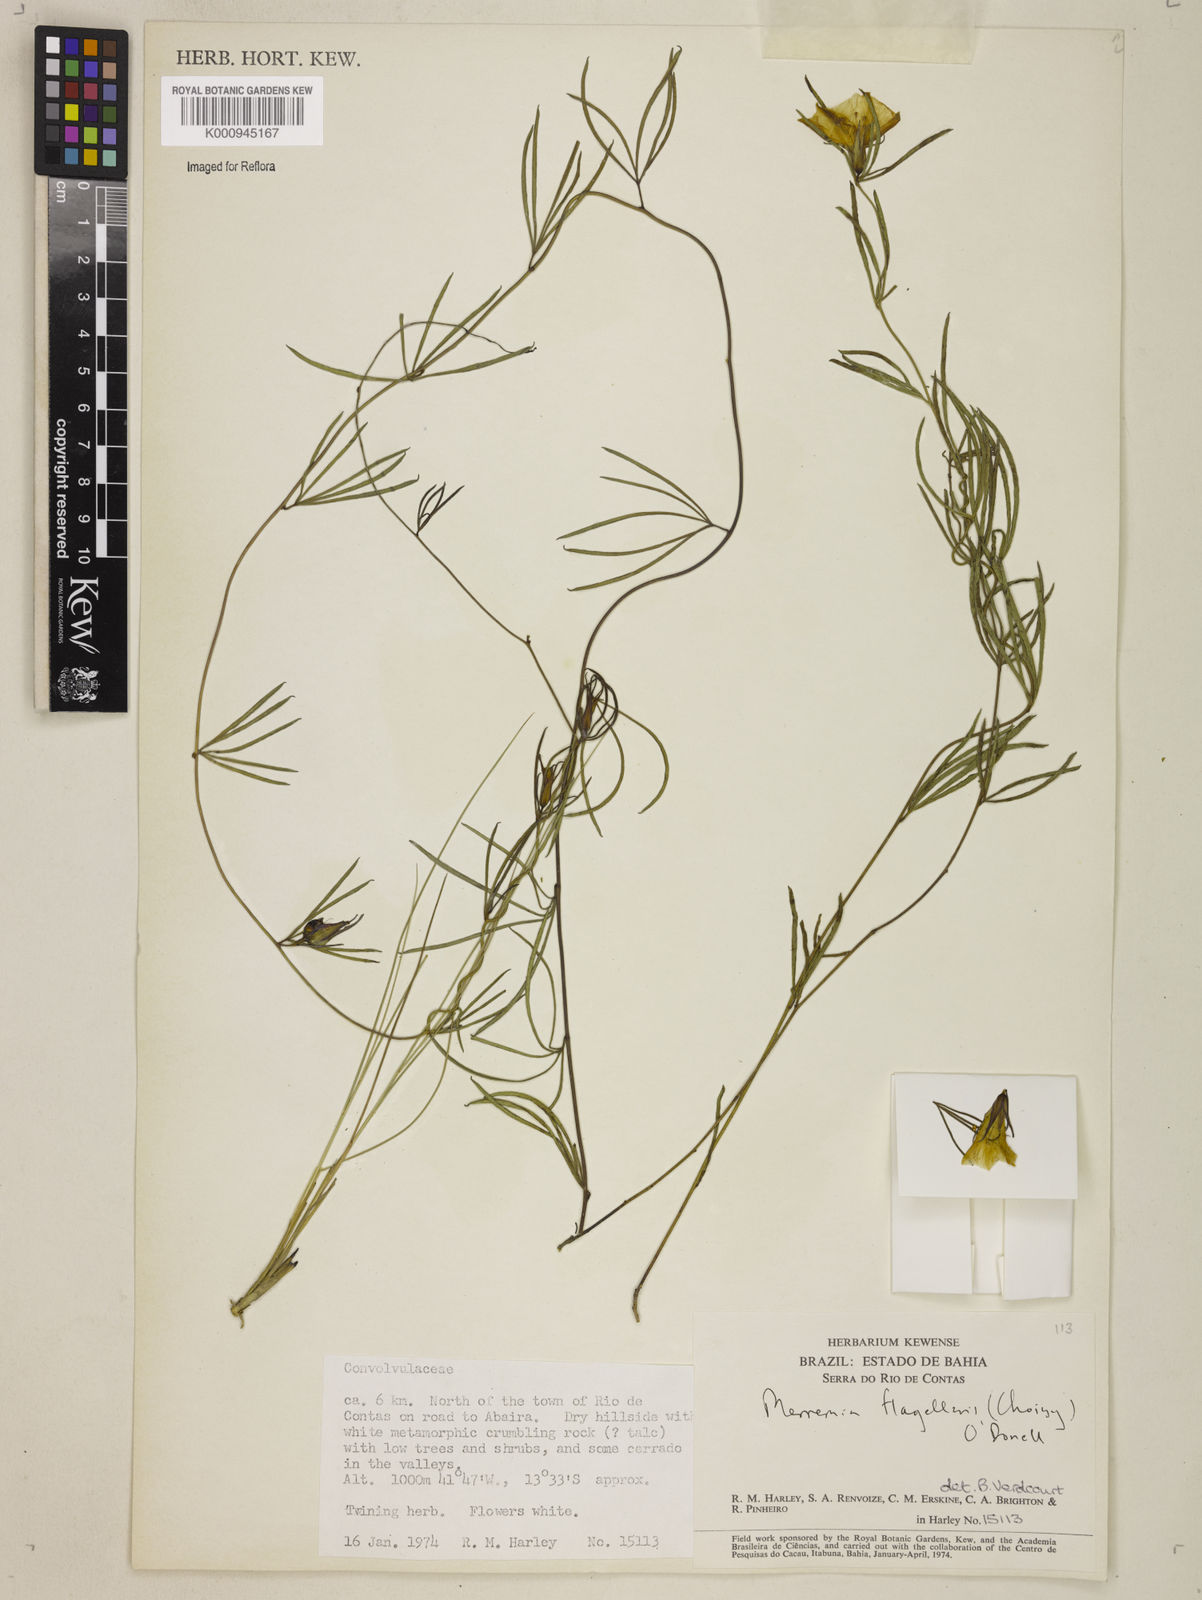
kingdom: Plantae
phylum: Tracheophyta
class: Magnoliopsida
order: Solanales
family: Convolvulaceae
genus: Distimake
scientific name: Distimake flagellaris
